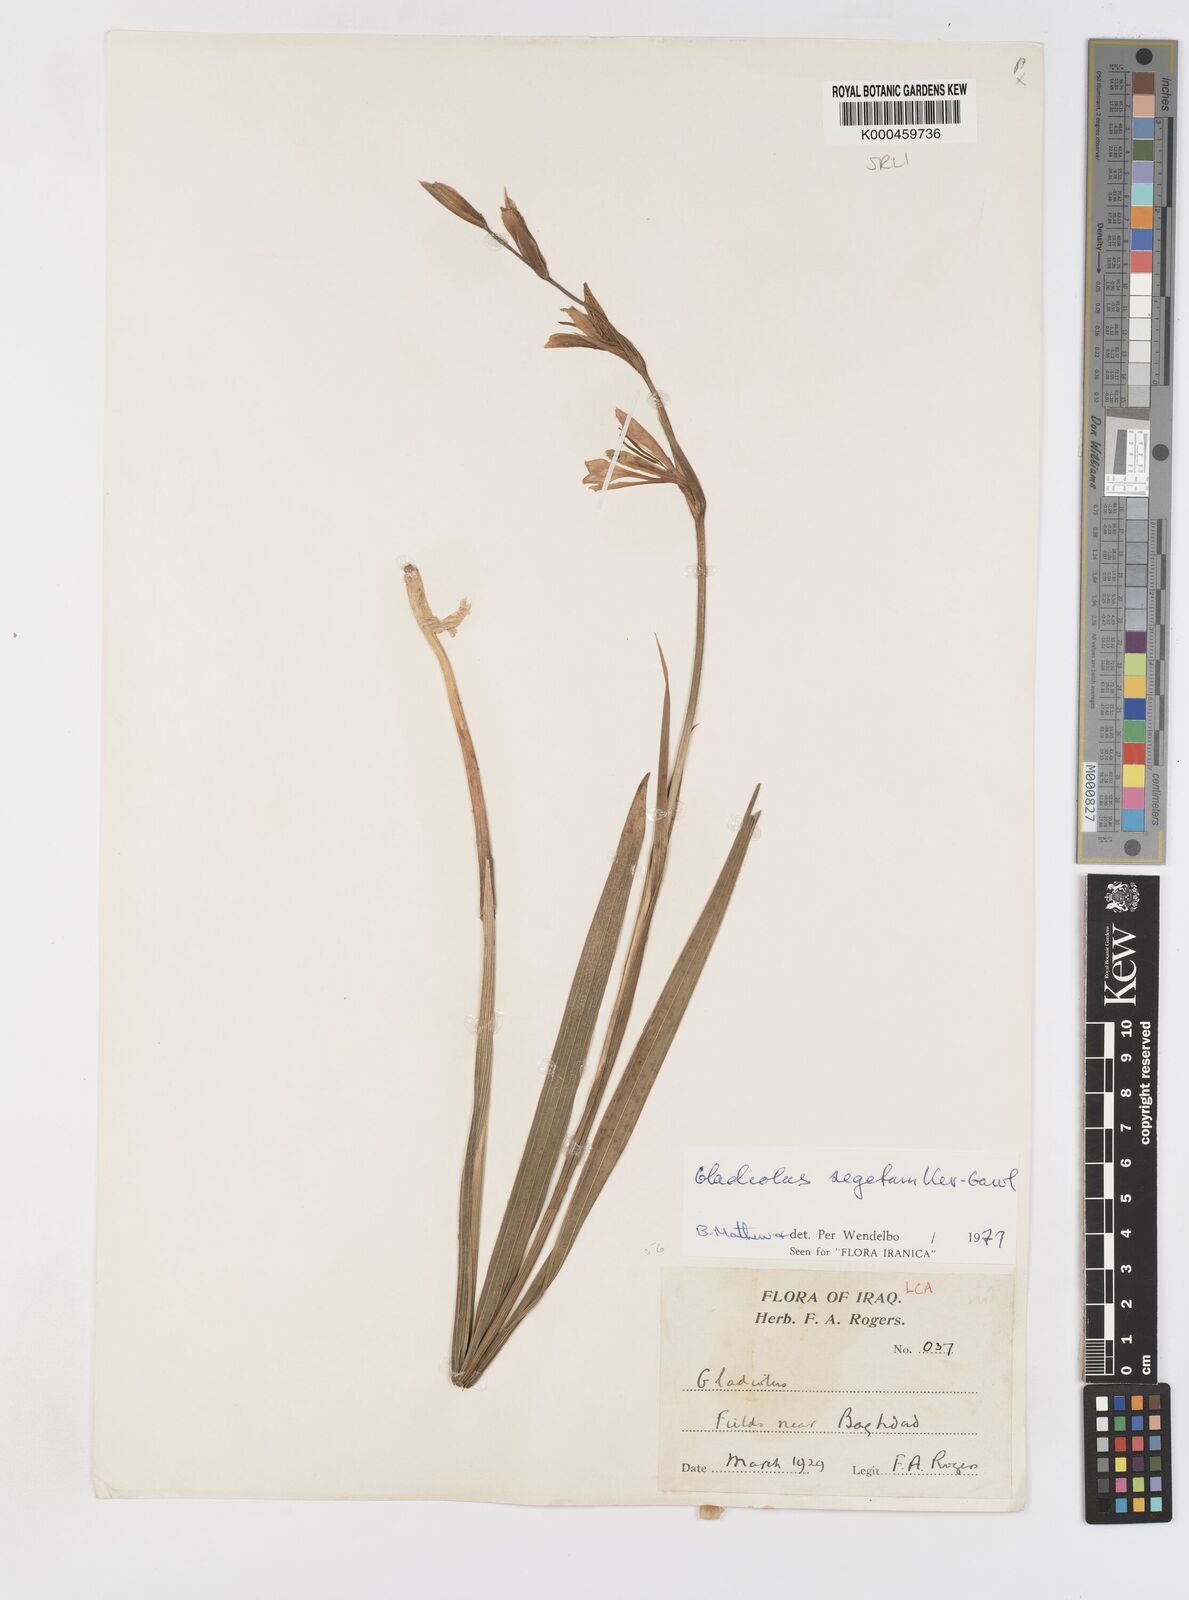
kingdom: Plantae
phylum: Tracheophyta
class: Liliopsida
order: Asparagales
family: Iridaceae
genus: Gladiolus
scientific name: Gladiolus italicus
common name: Field gladiolus
